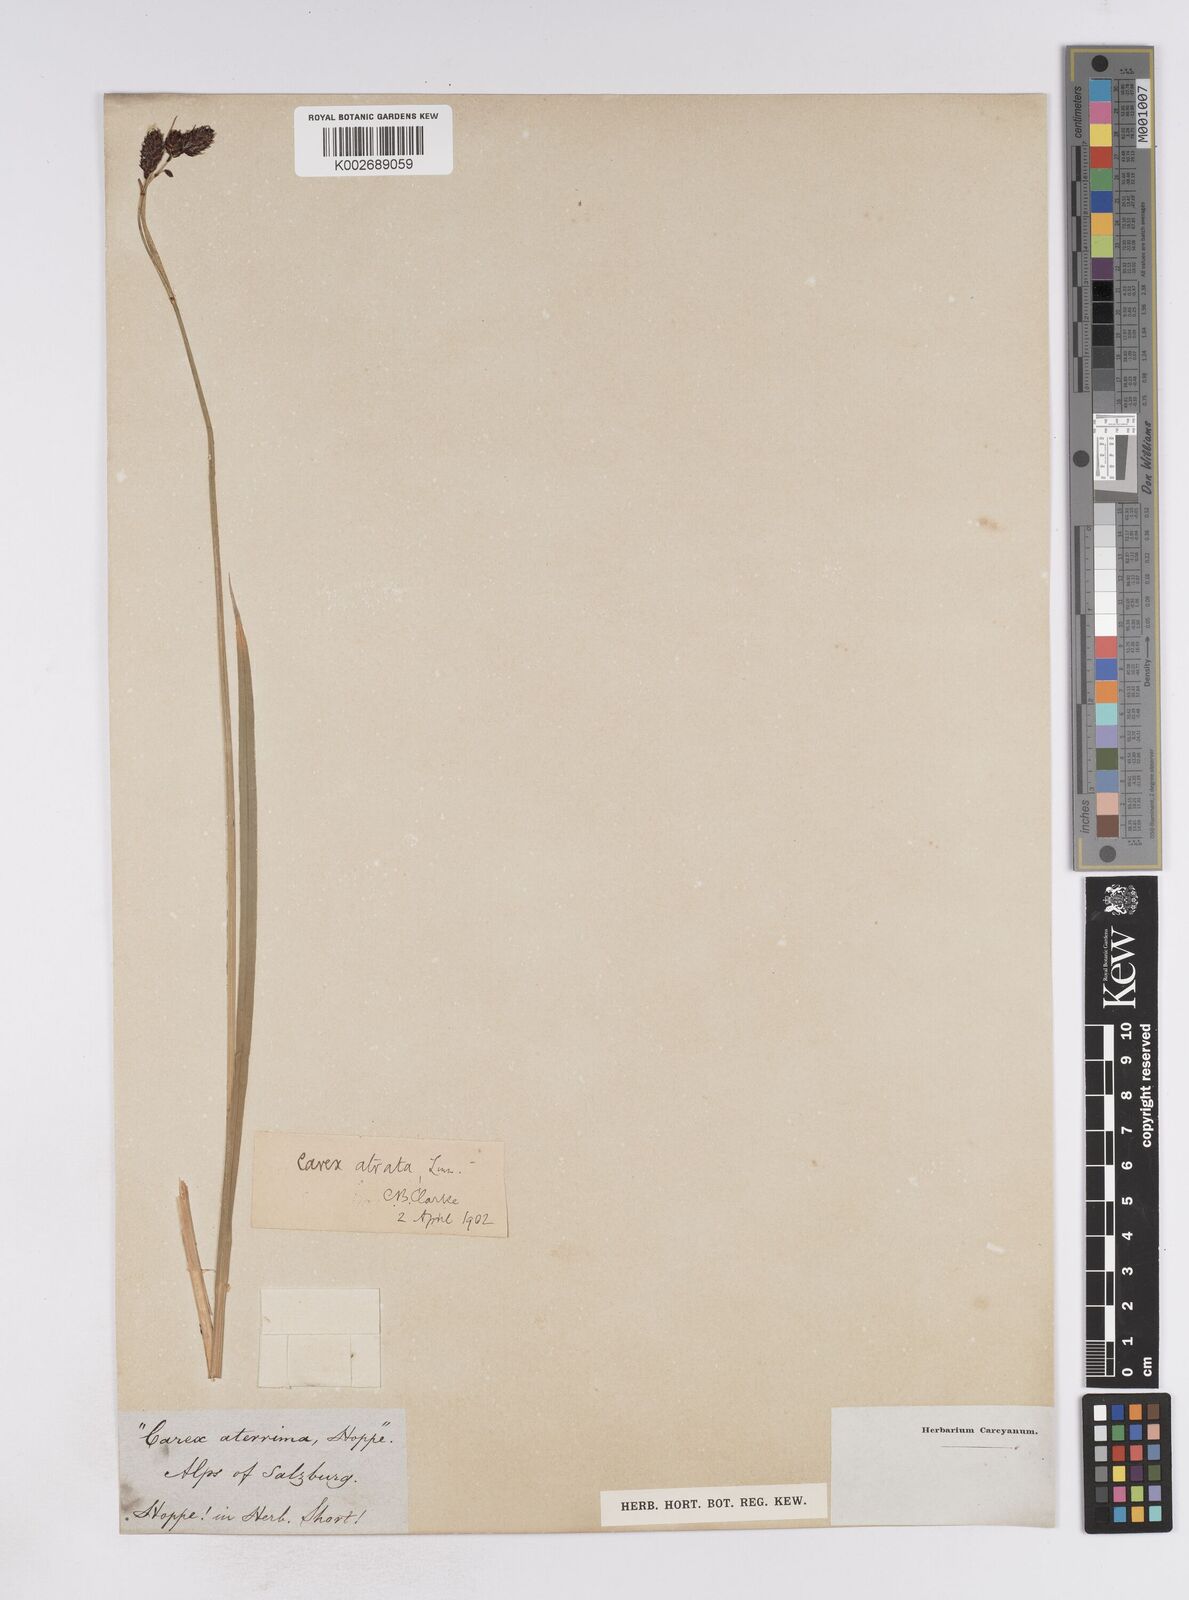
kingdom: Plantae
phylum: Tracheophyta
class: Liliopsida
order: Poales
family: Cyperaceae
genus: Carex
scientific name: Carex atrata
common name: Black alpine sedge
